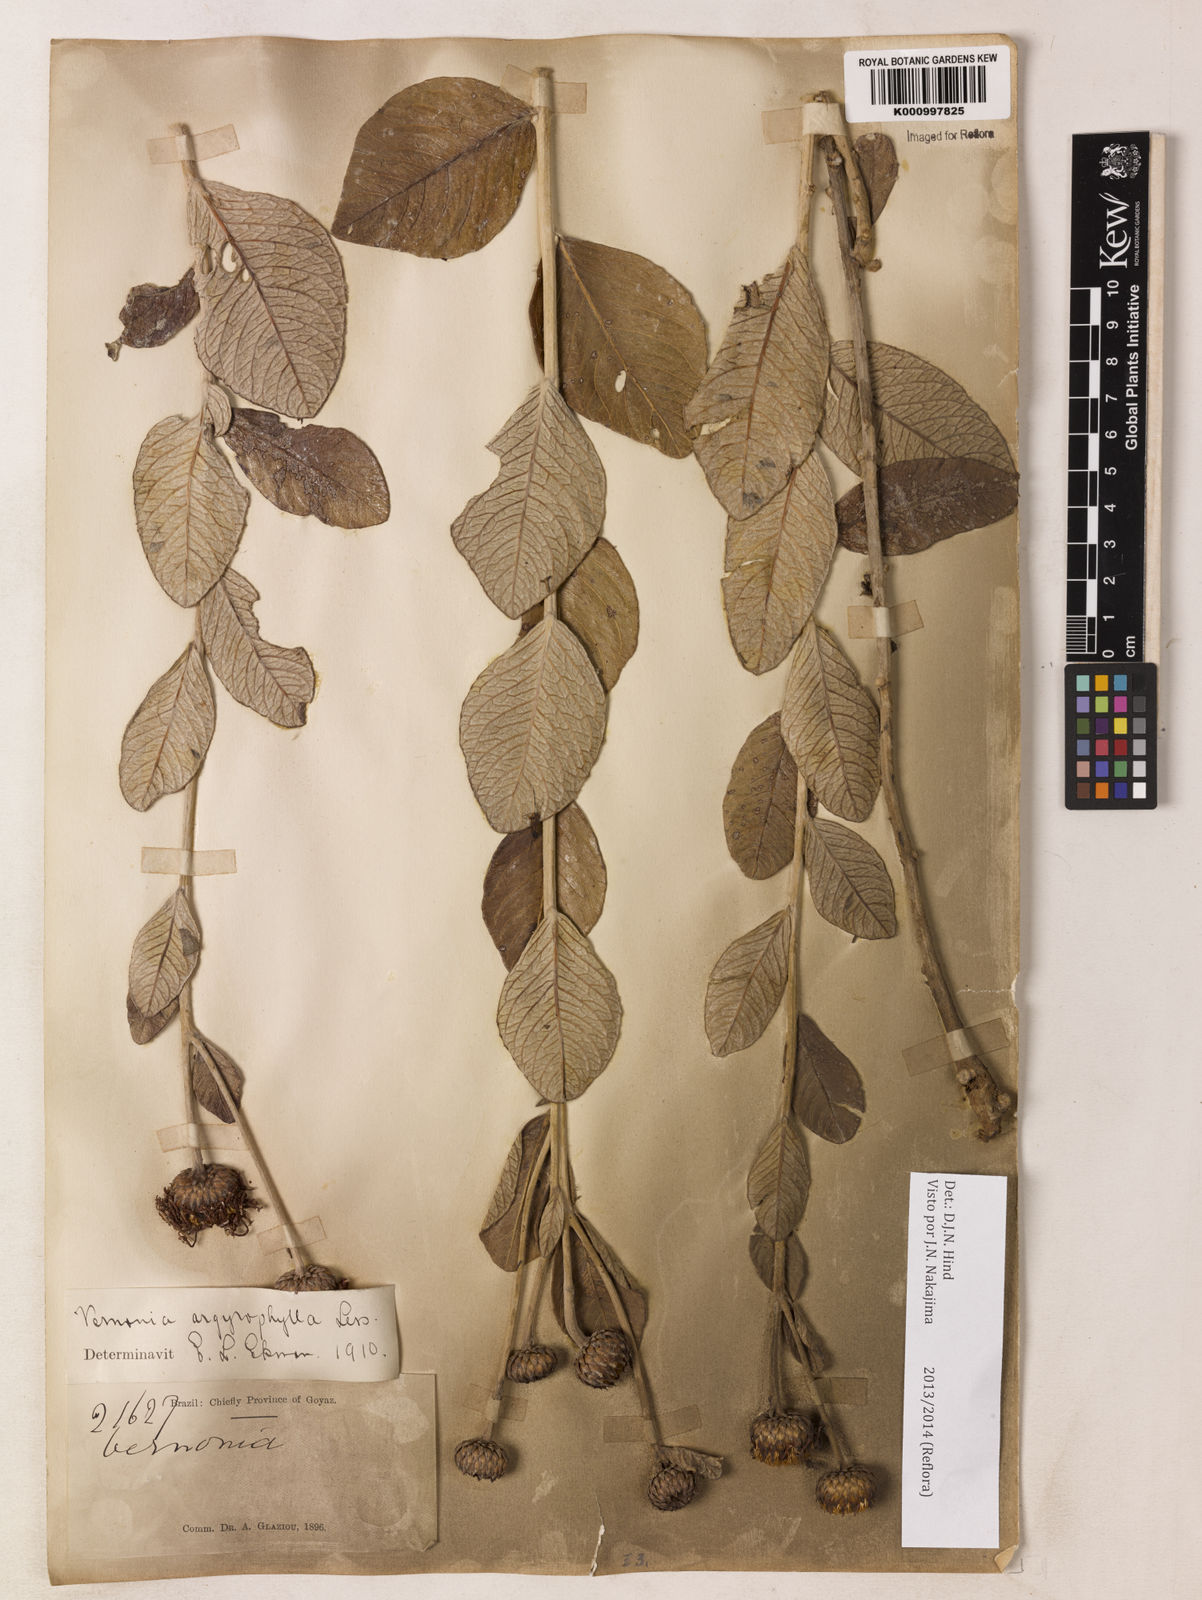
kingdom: Plantae
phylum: Tracheophyta
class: Magnoliopsida
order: Asterales
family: Asteraceae
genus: Lessingianthus
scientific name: Lessingianthus argyrophyllus
